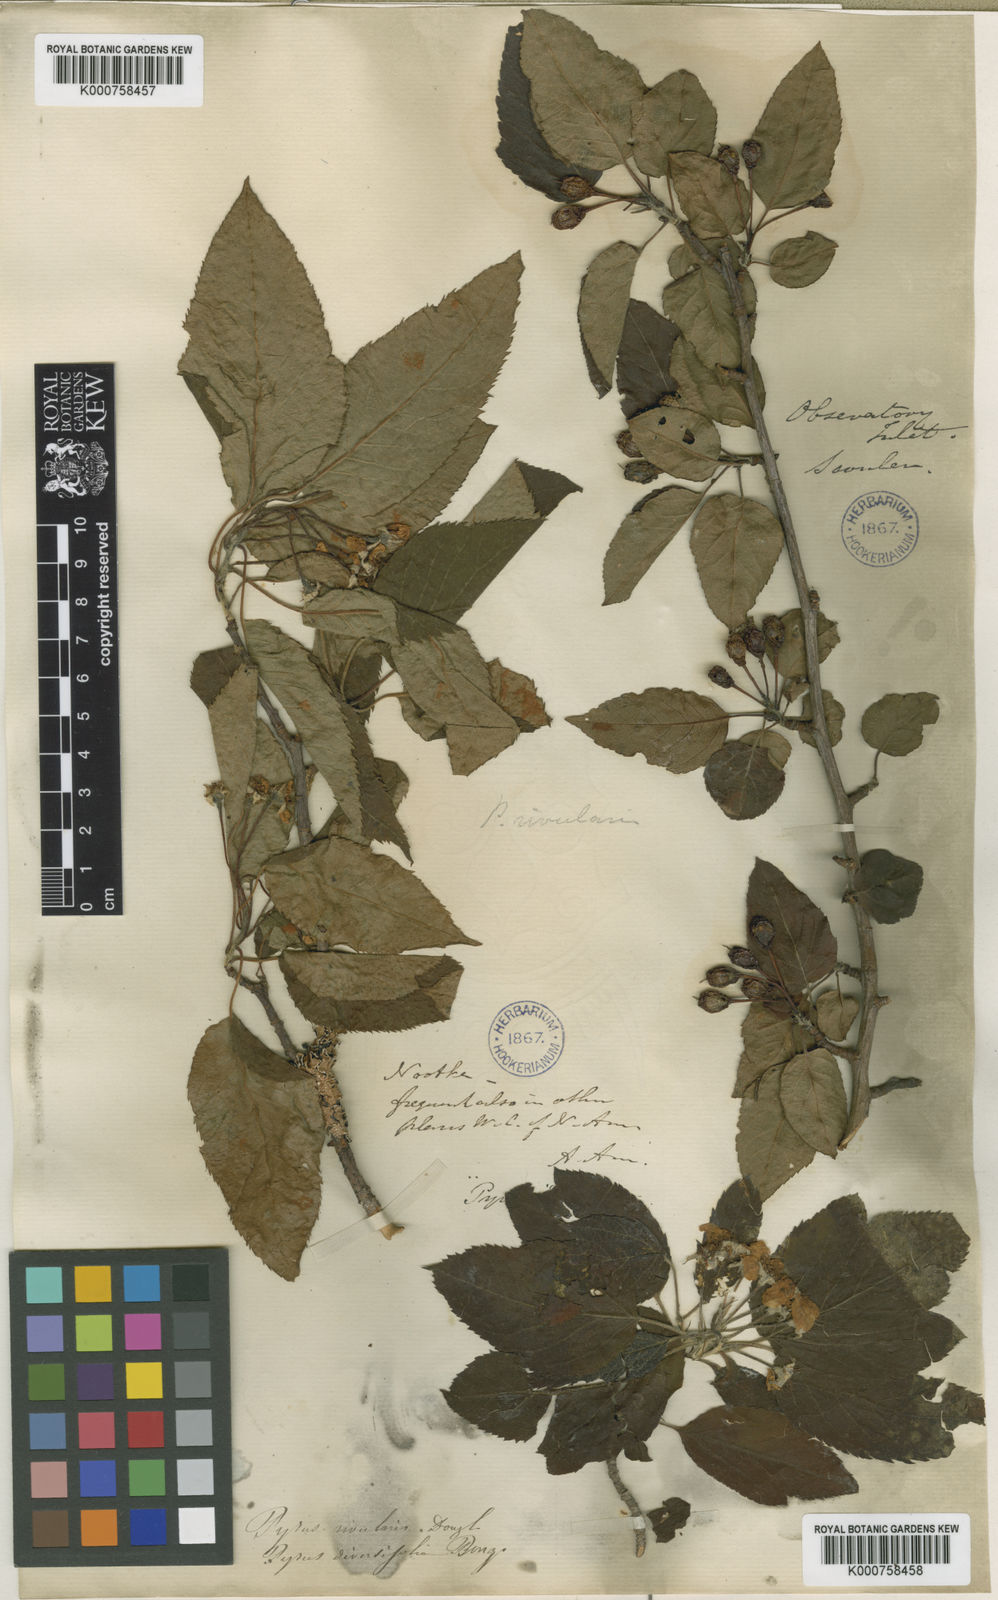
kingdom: Plantae
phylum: Tracheophyta
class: Magnoliopsida
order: Rosales
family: Rosaceae
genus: Malus
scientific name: Malus fusca
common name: Oregon crab apple
